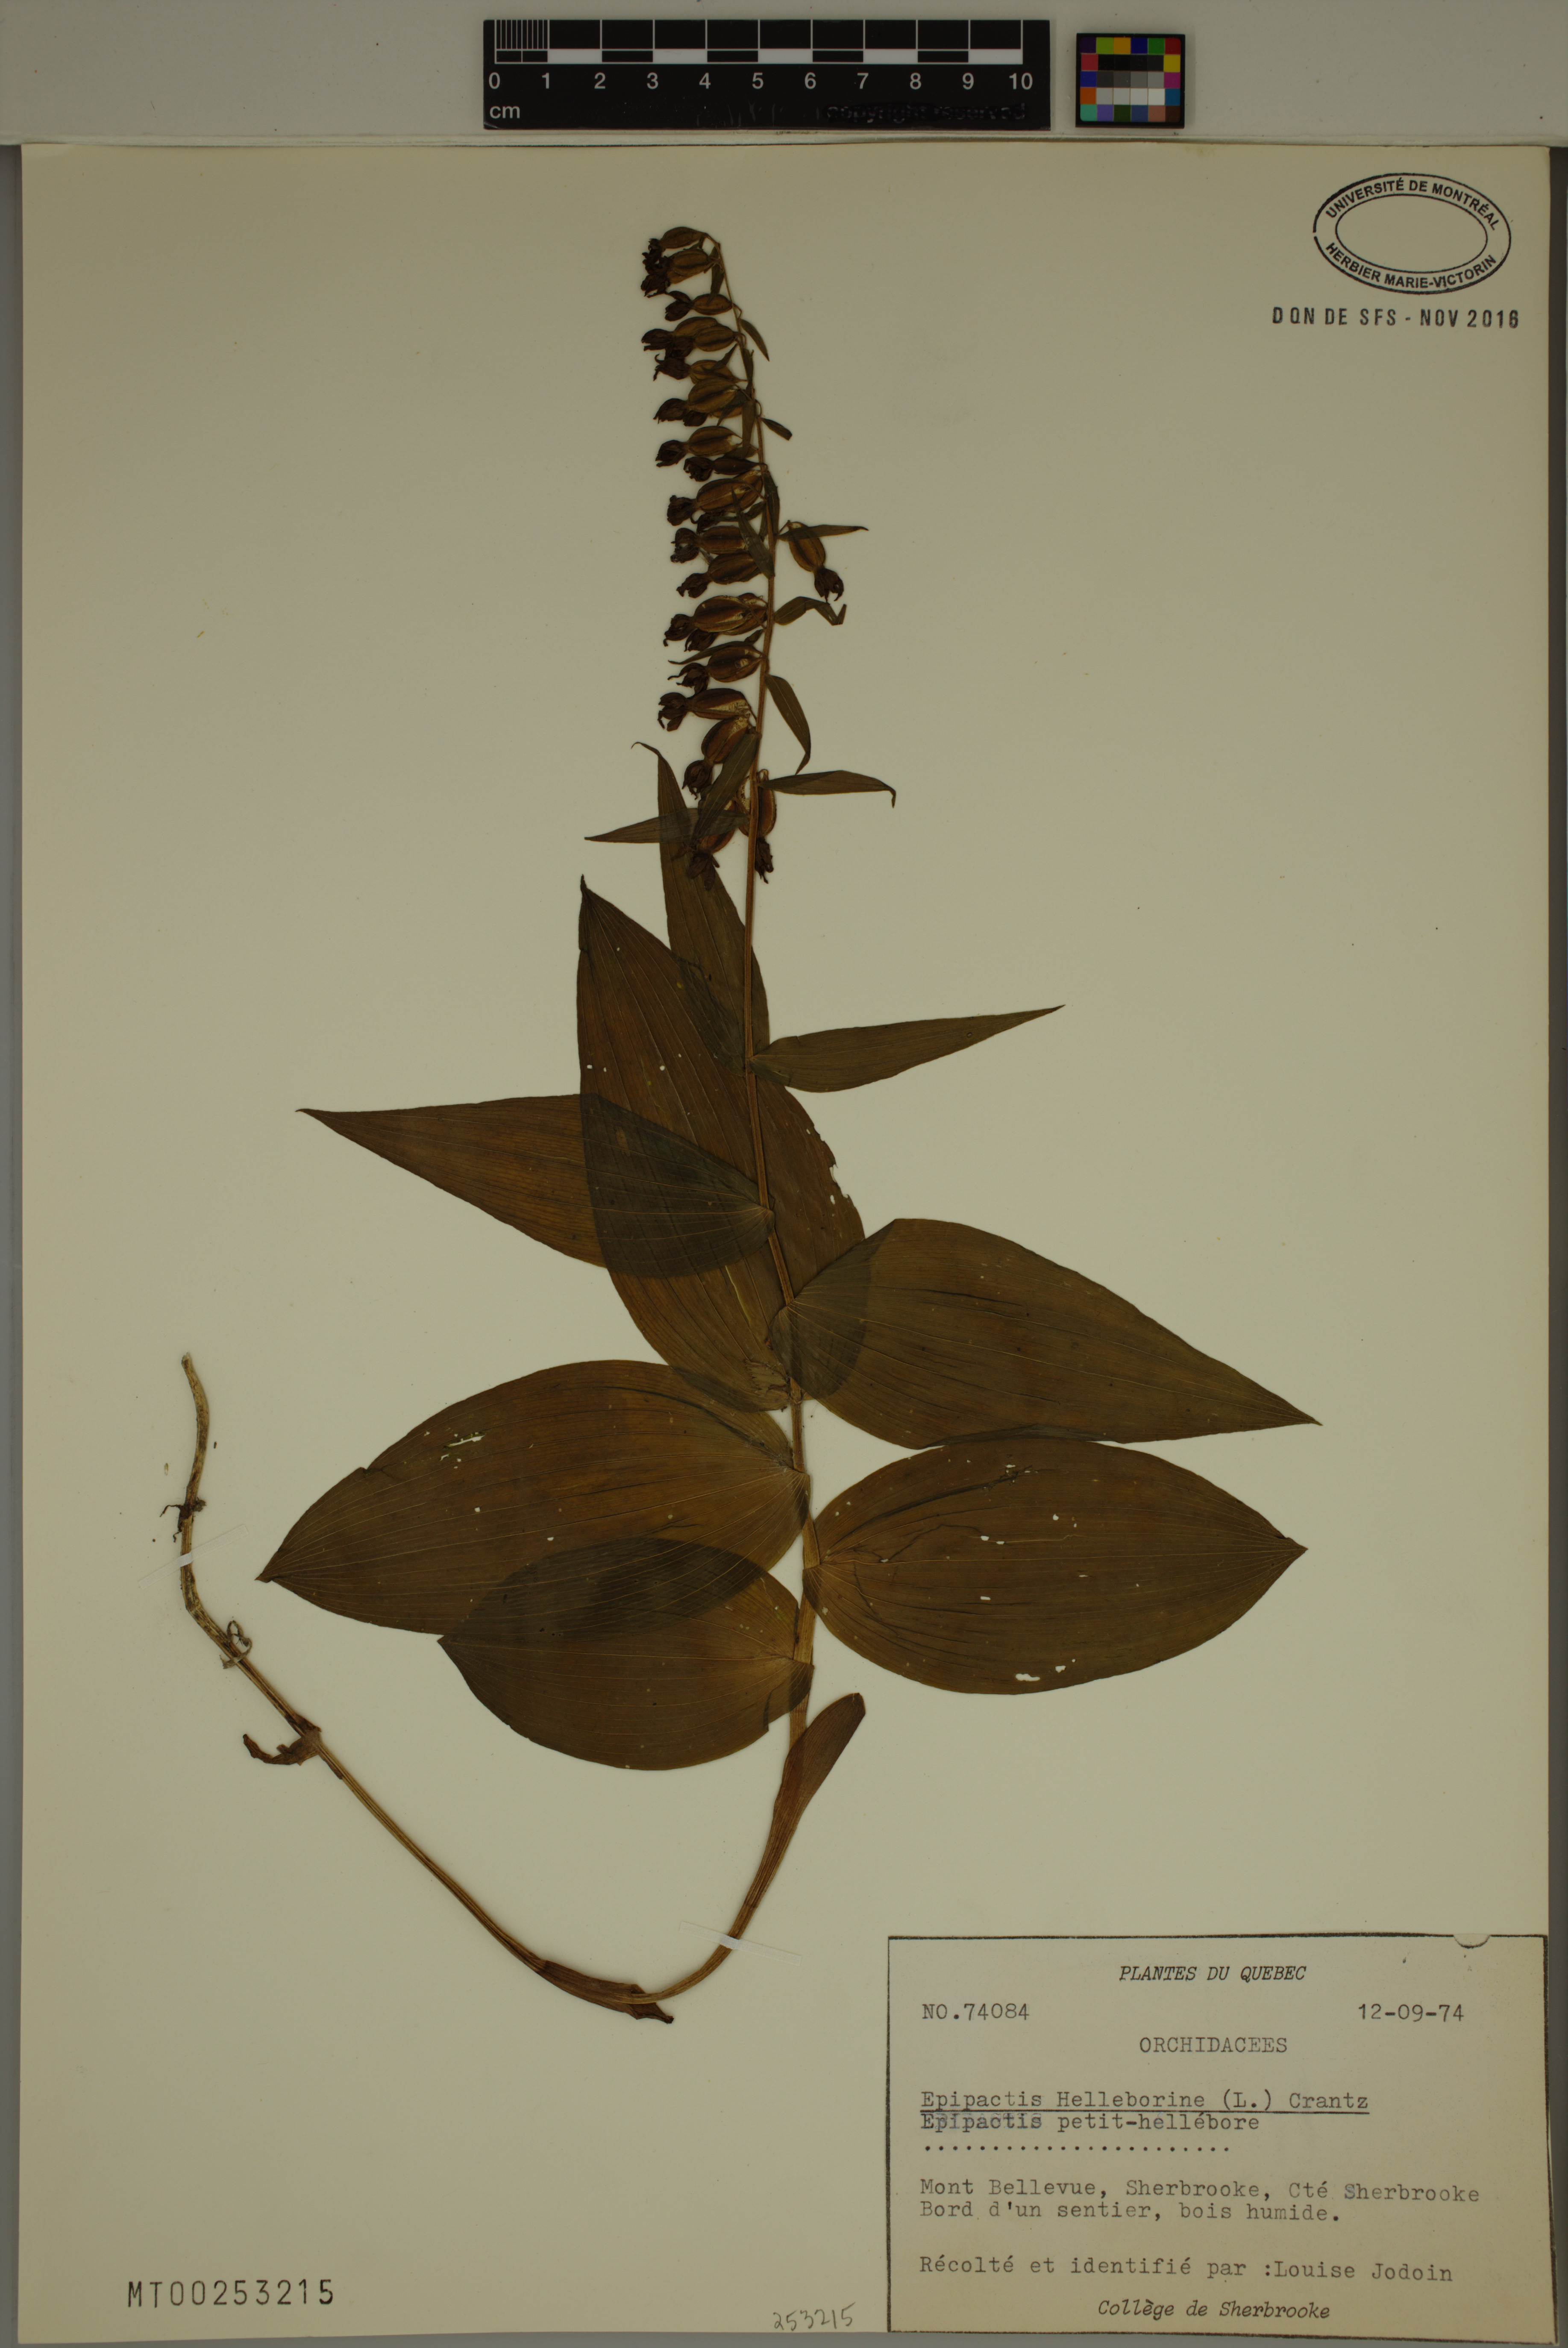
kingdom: Plantae
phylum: Tracheophyta
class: Liliopsida
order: Asparagales
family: Orchidaceae
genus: Epipactis
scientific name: Epipactis helleborine
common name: Broad-leaved helleborine
